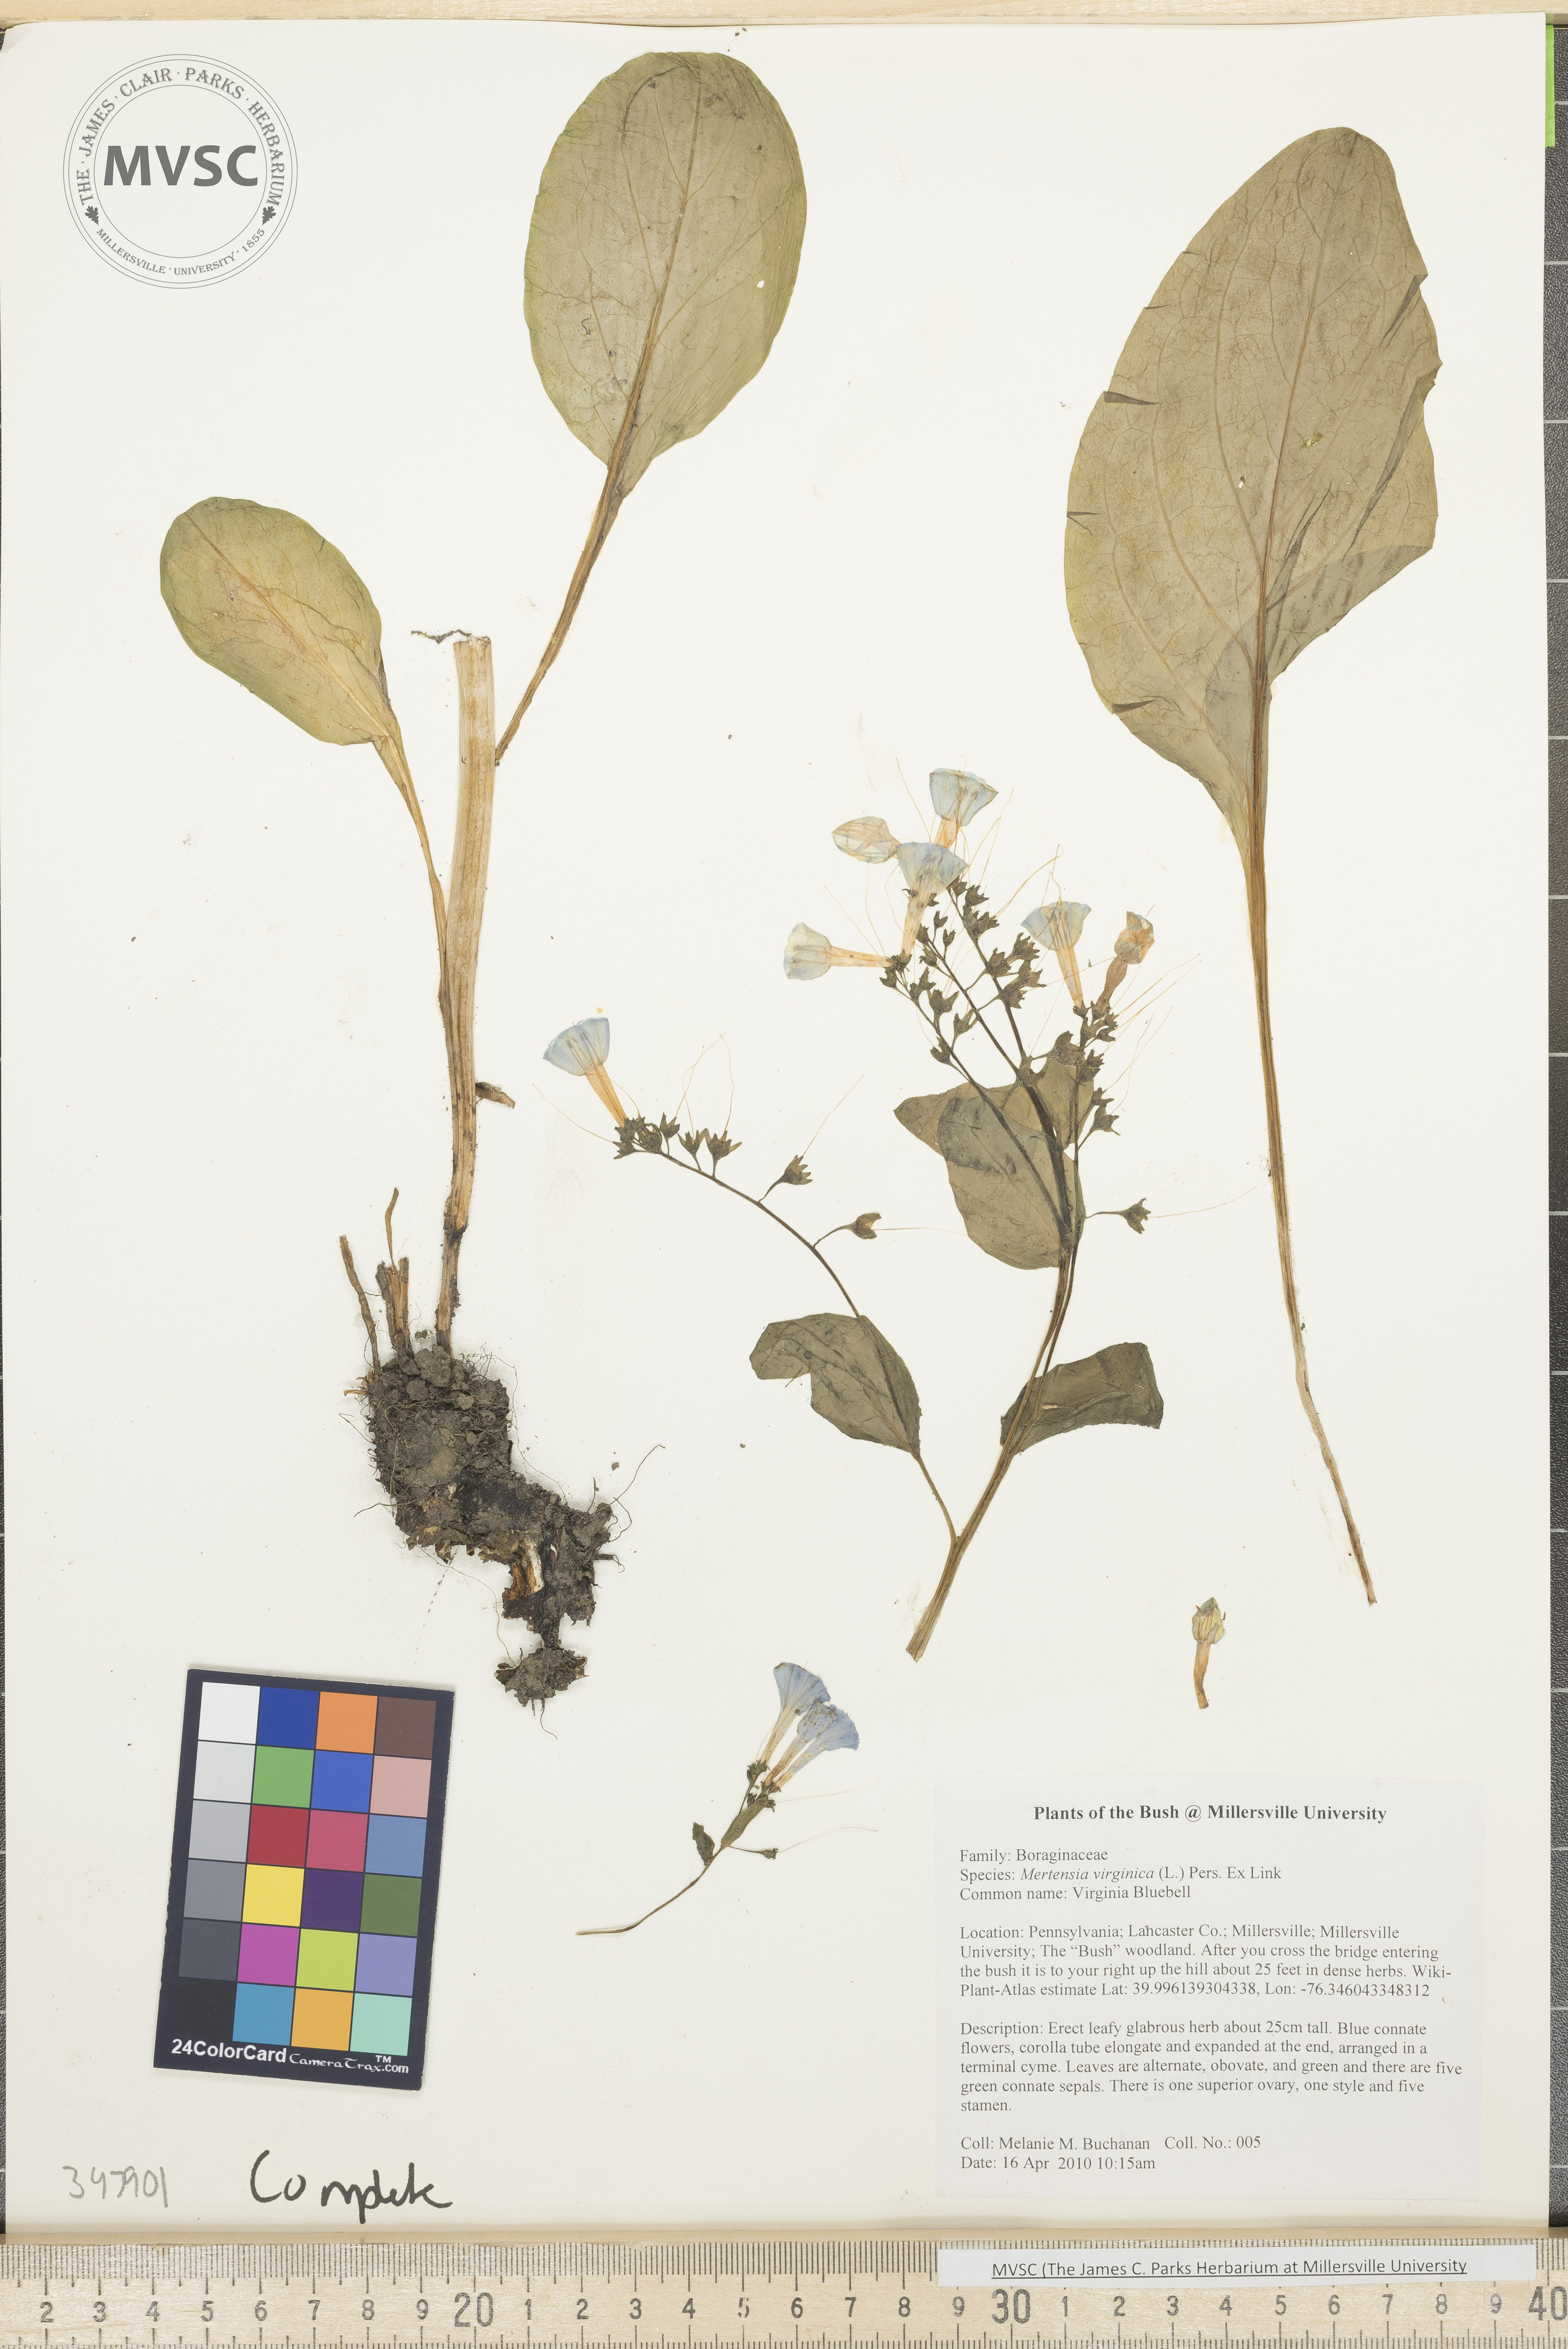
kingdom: Plantae
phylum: Tracheophyta
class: Magnoliopsida
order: Boraginales
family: Boraginaceae
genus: Mertensia
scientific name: Mertensia virginica
